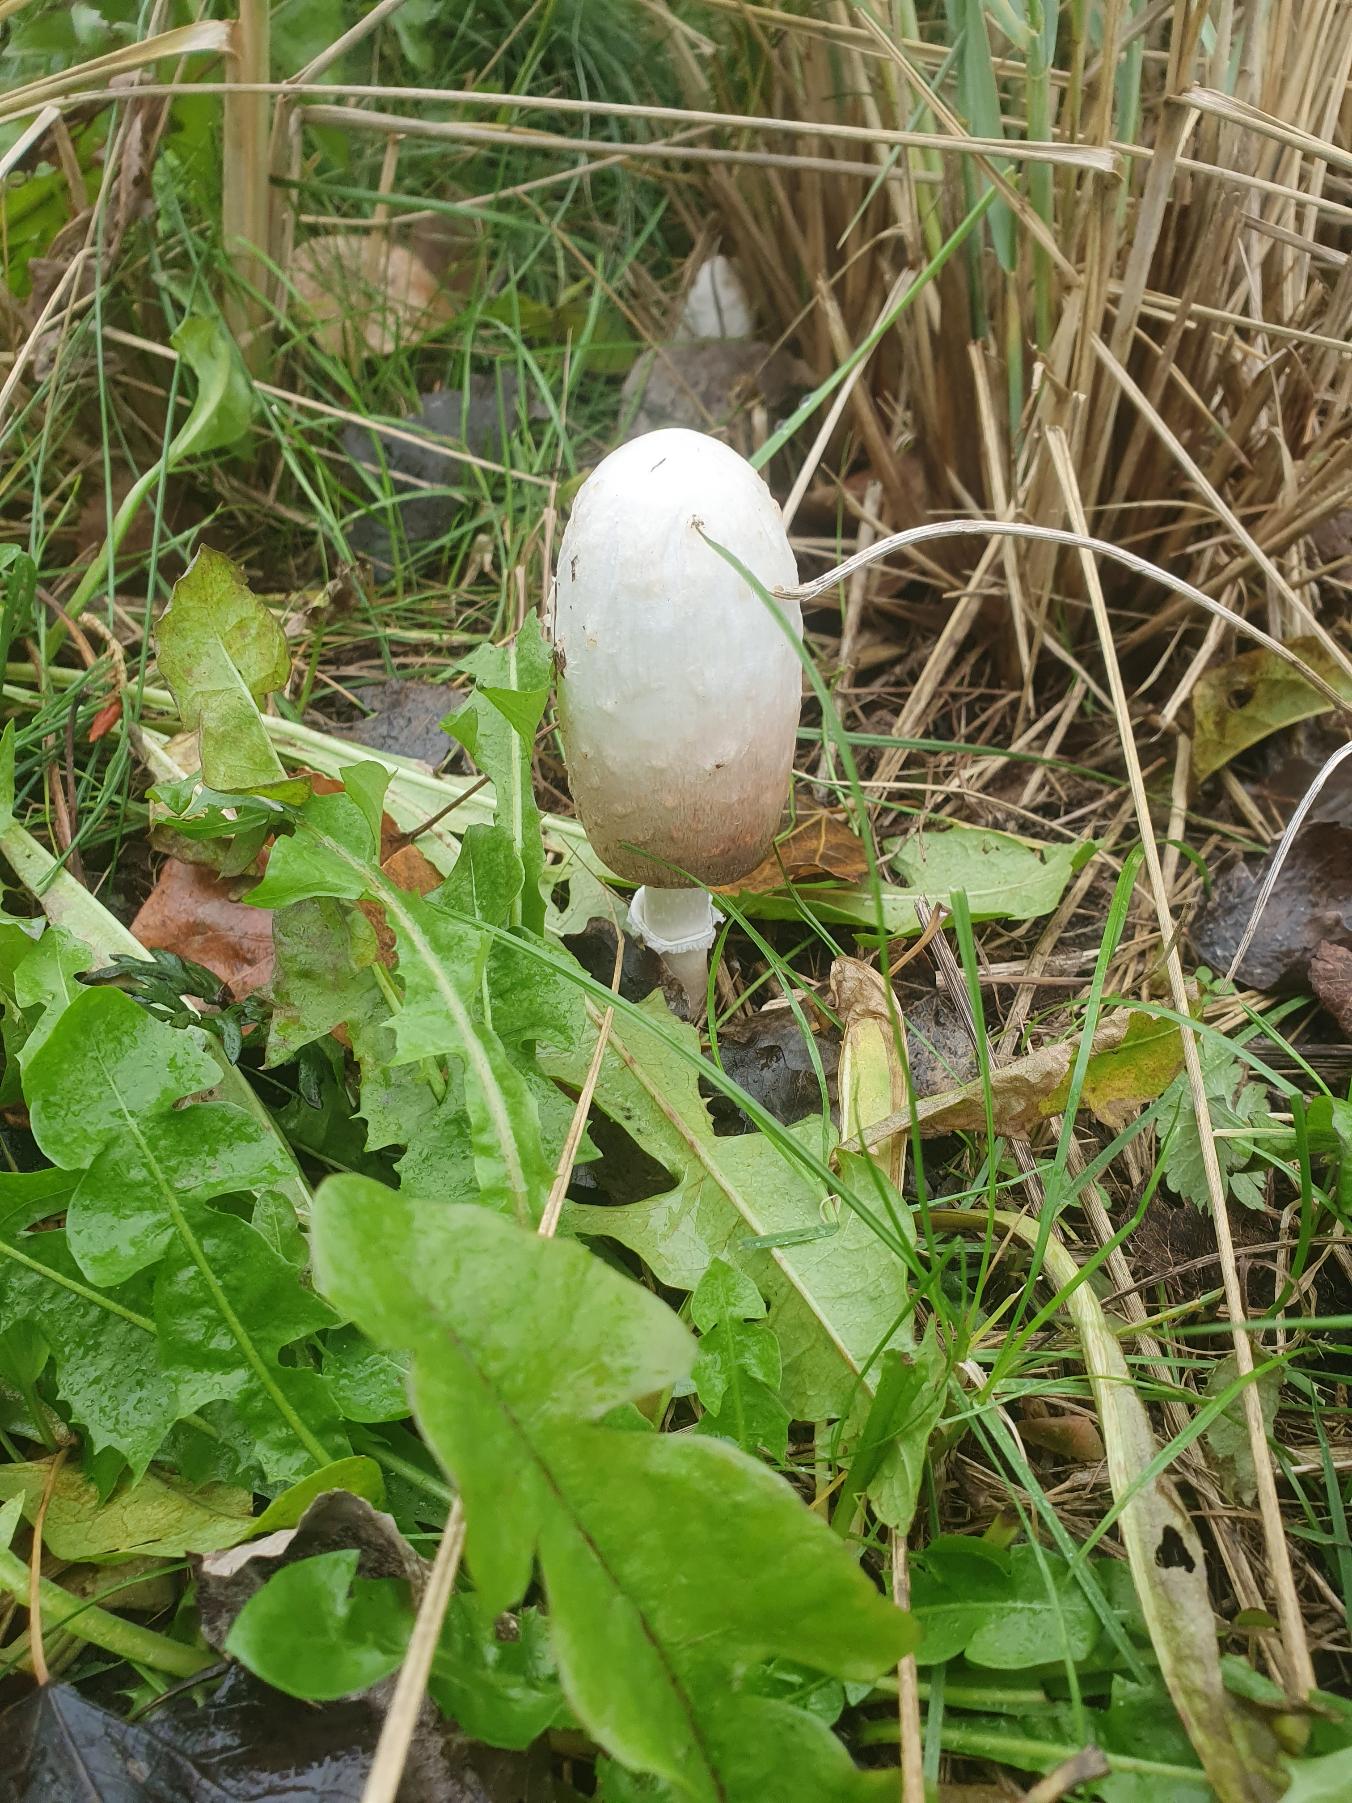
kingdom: Fungi
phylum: Basidiomycota
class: Agaricomycetes
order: Agaricales
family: Agaricaceae
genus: Coprinus
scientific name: Coprinus comatus
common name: Stor parykhat
